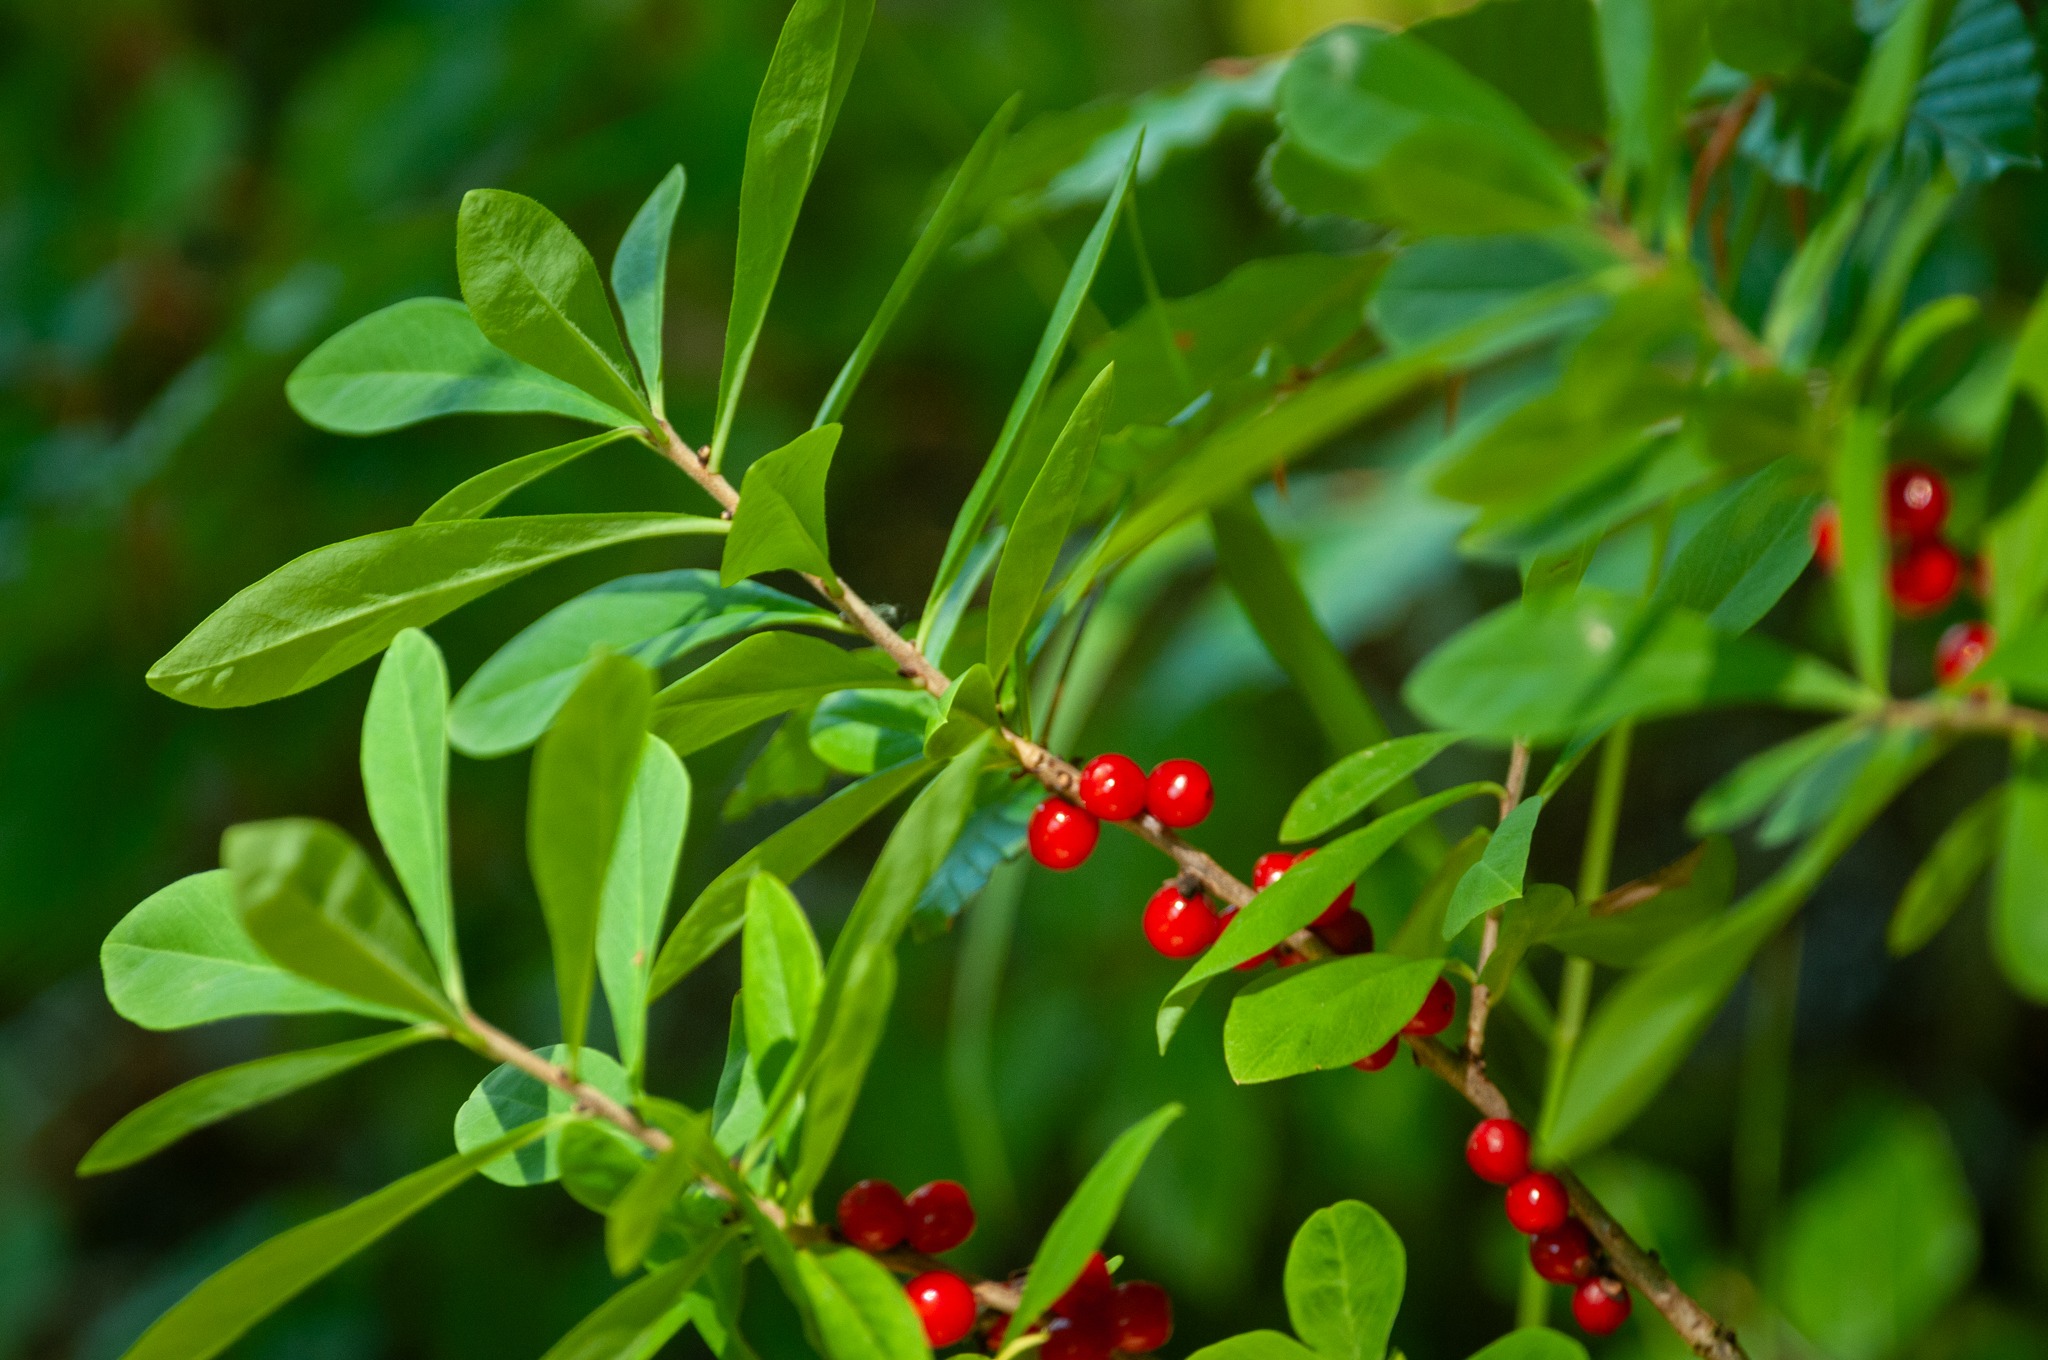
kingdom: Plantae
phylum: Tracheophyta
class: Magnoliopsida
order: Malvales
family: Thymelaeaceae
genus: Daphne
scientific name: Daphne mezereum
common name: Pebertræ
